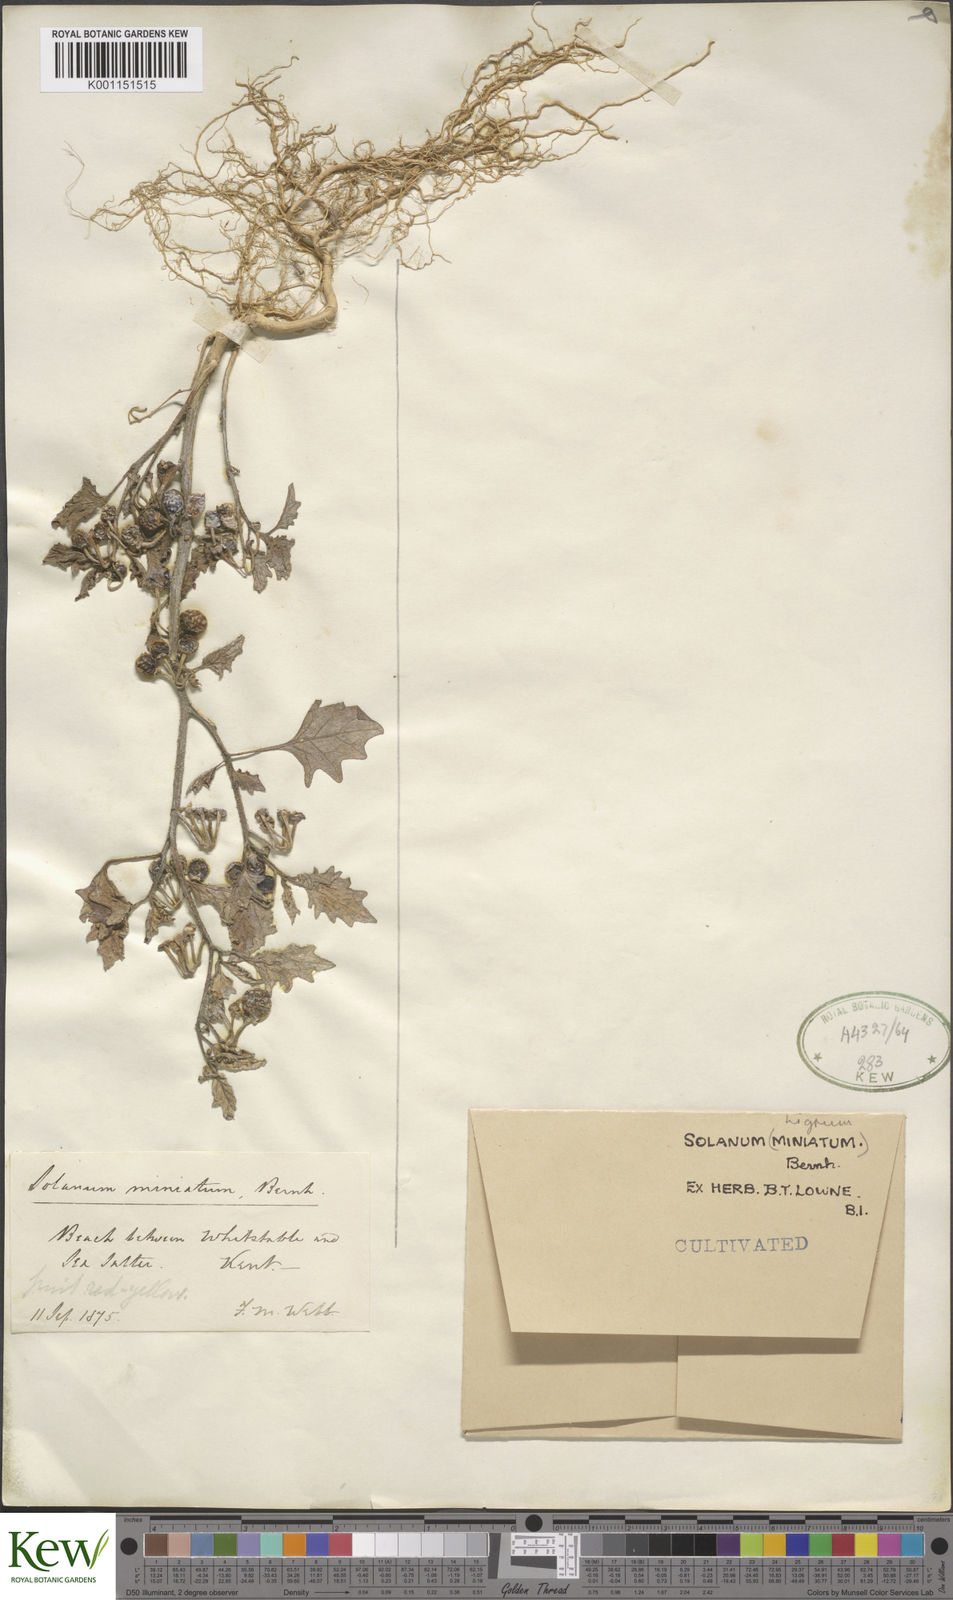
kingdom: Plantae
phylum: Tracheophyta
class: Magnoliopsida
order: Solanales
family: Solanaceae
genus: Solanum
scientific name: Solanum alatum
